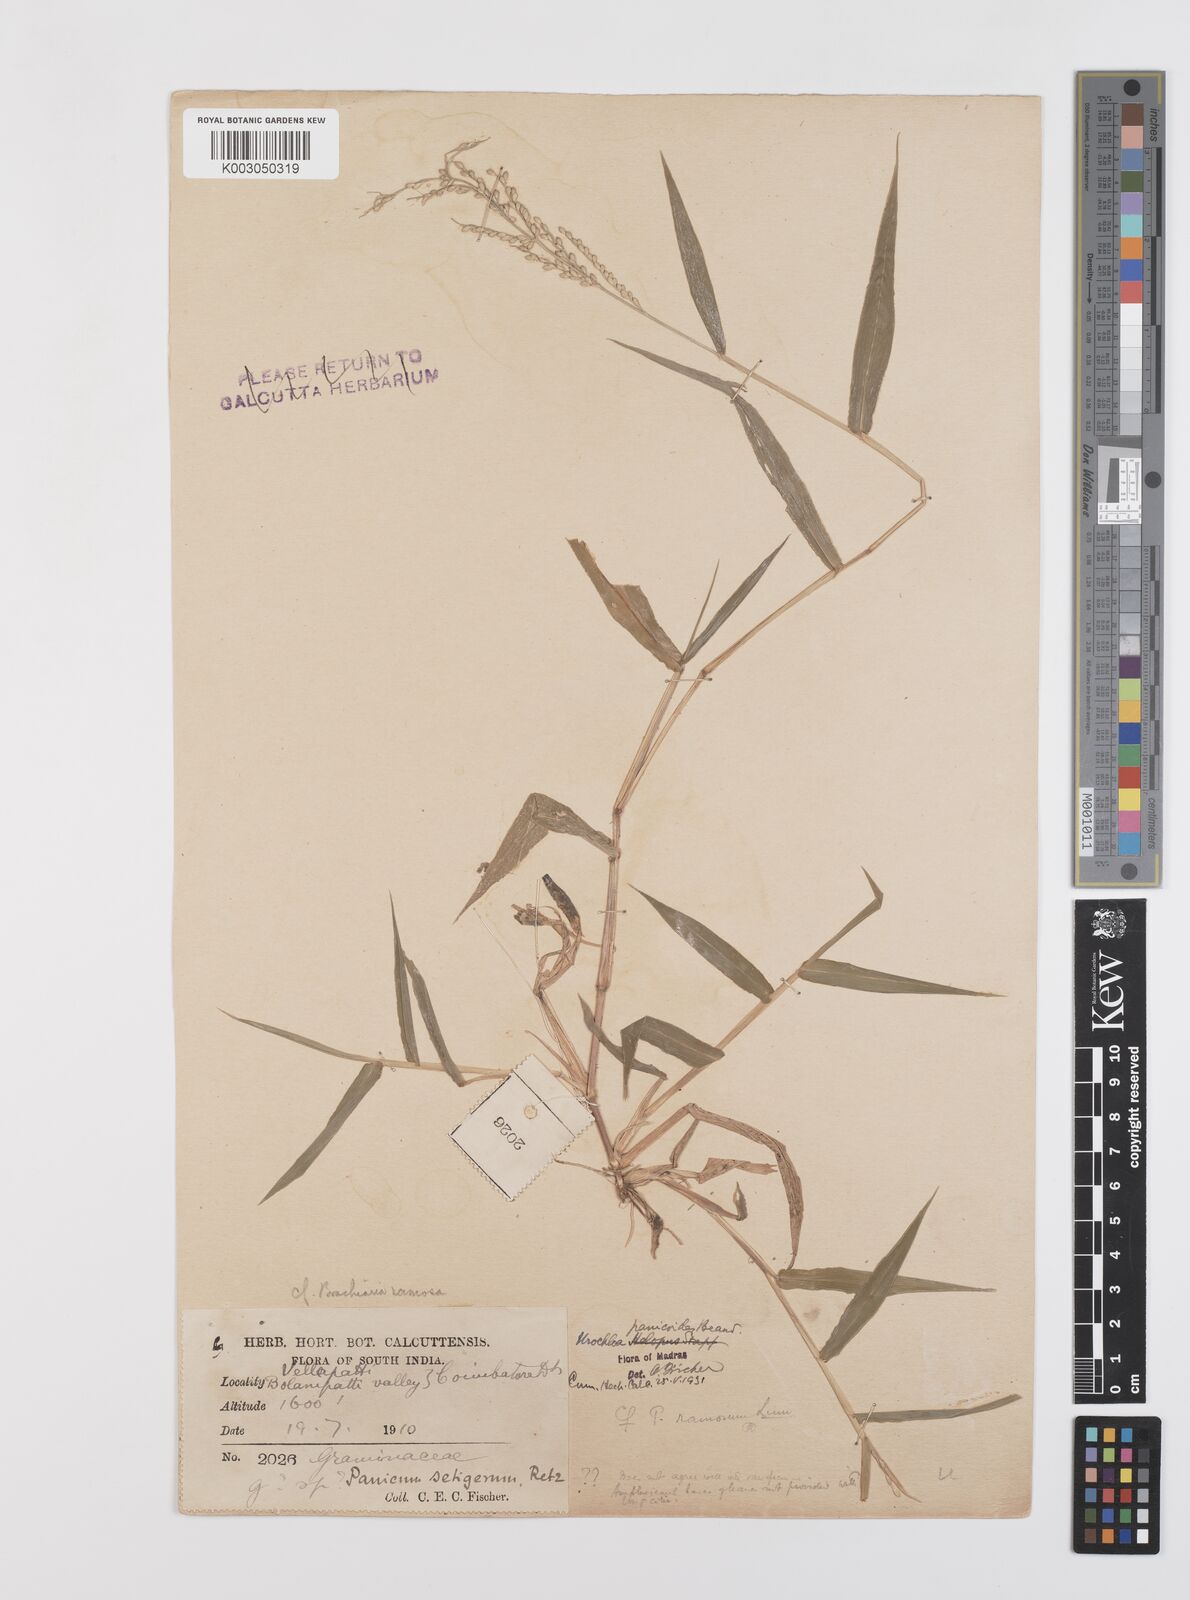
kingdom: Plantae
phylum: Tracheophyta
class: Liliopsida
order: Poales
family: Poaceae
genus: Urochloa
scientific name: Urochloa ramosa
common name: Browntop millet
